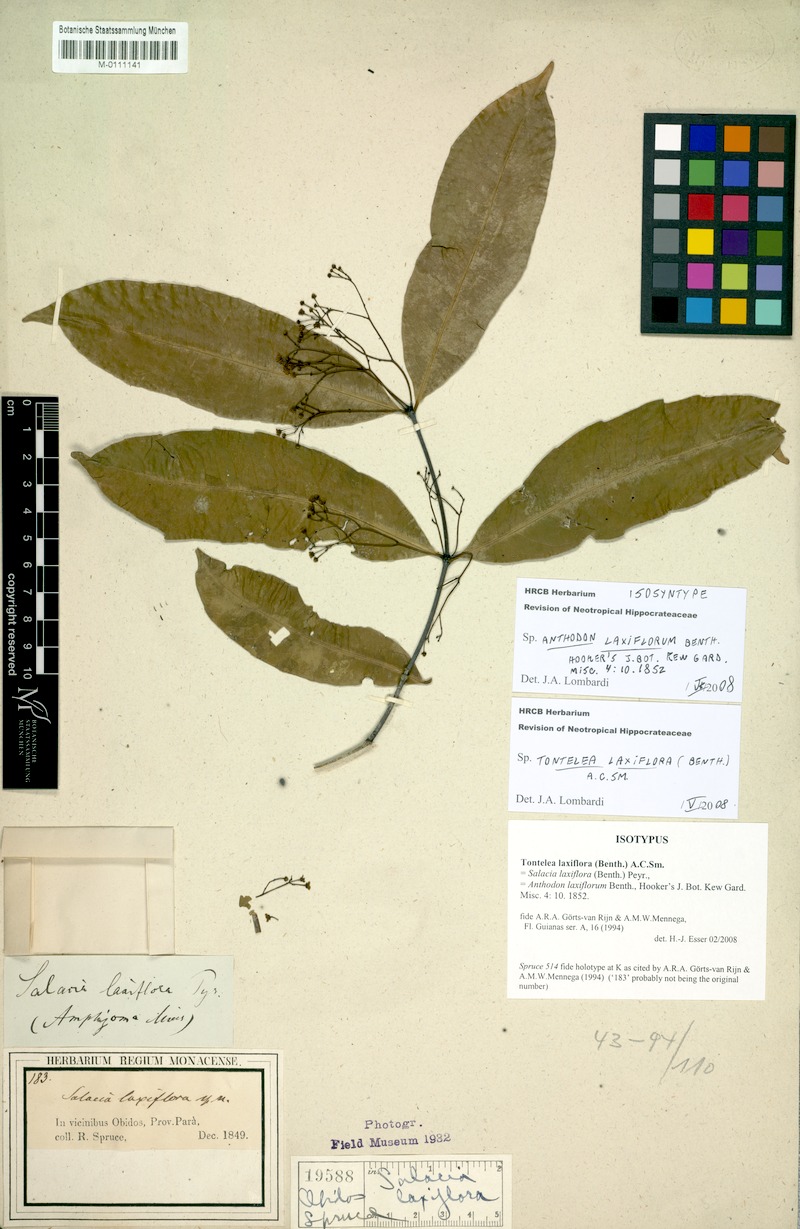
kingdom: Plantae
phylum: Tracheophyta
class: Magnoliopsida
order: Celastrales
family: Celastraceae
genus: Tontelea
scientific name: Tontelea laxiflora
